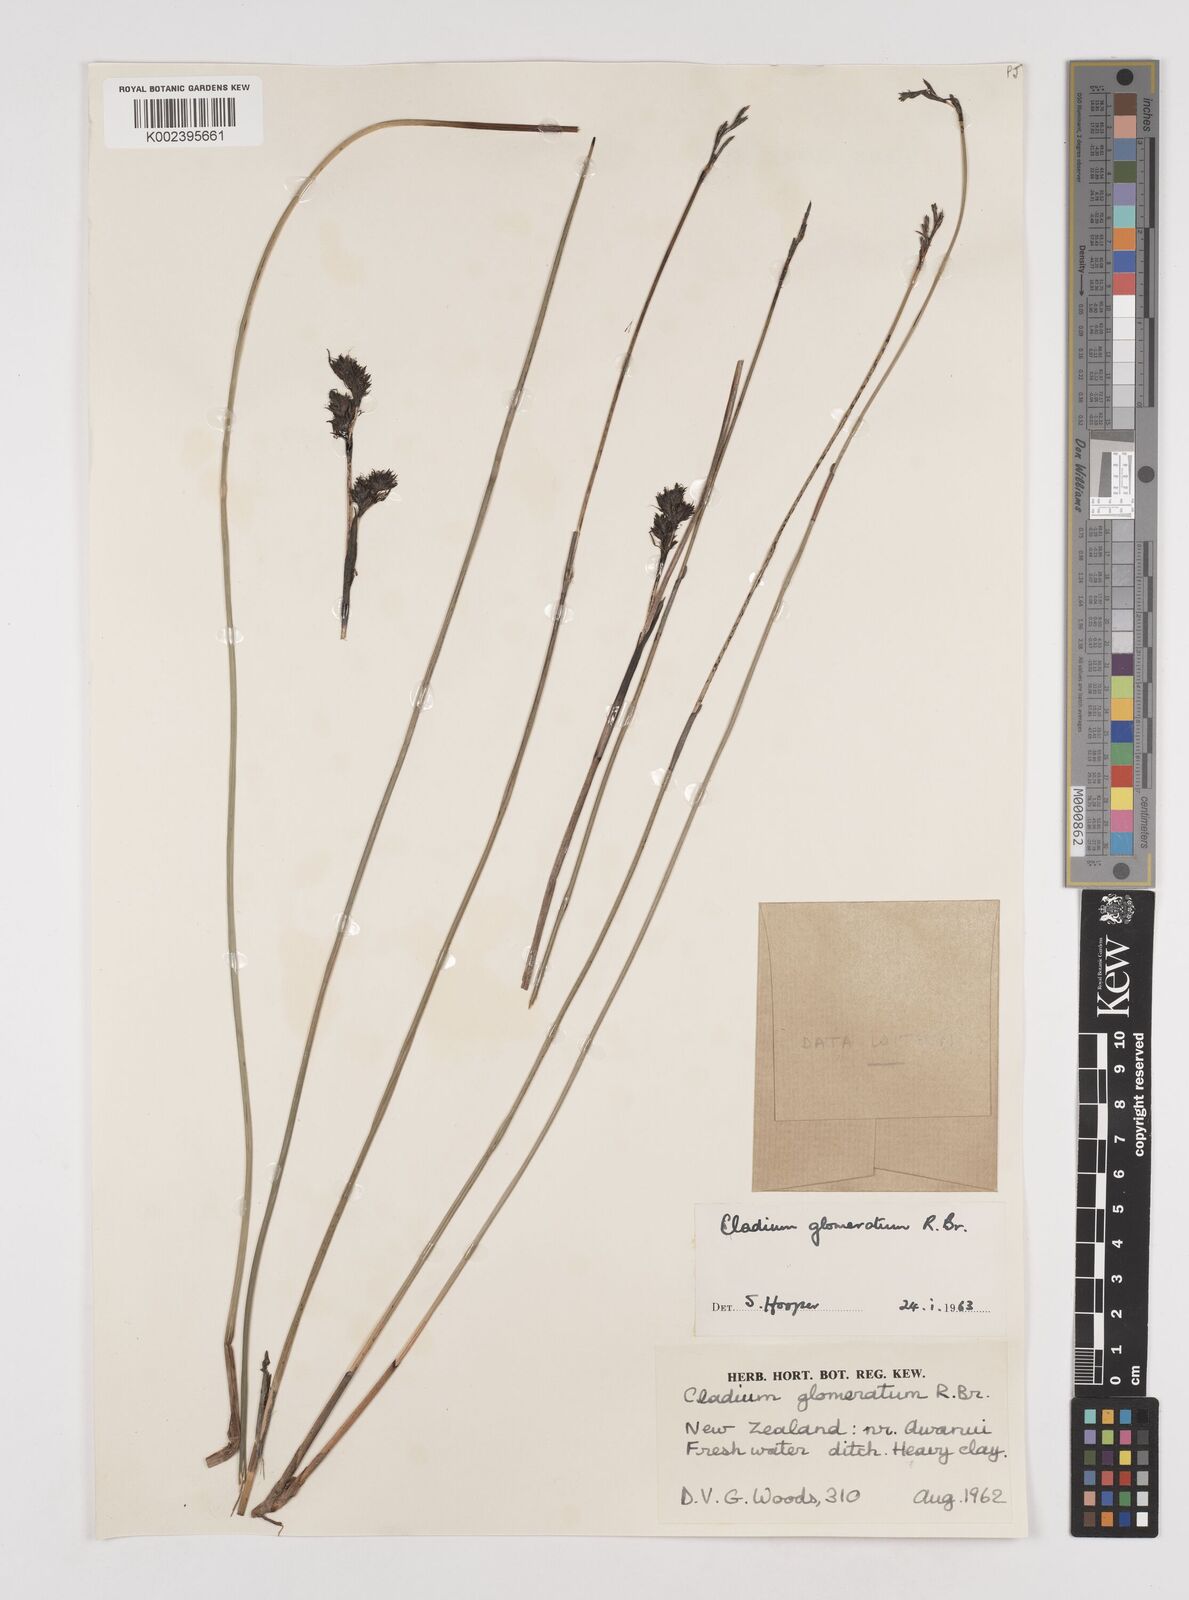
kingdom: Plantae
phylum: Tracheophyta
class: Liliopsida
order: Poales
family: Cyperaceae
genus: Machaerina
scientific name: Machaerina rubiginosa
